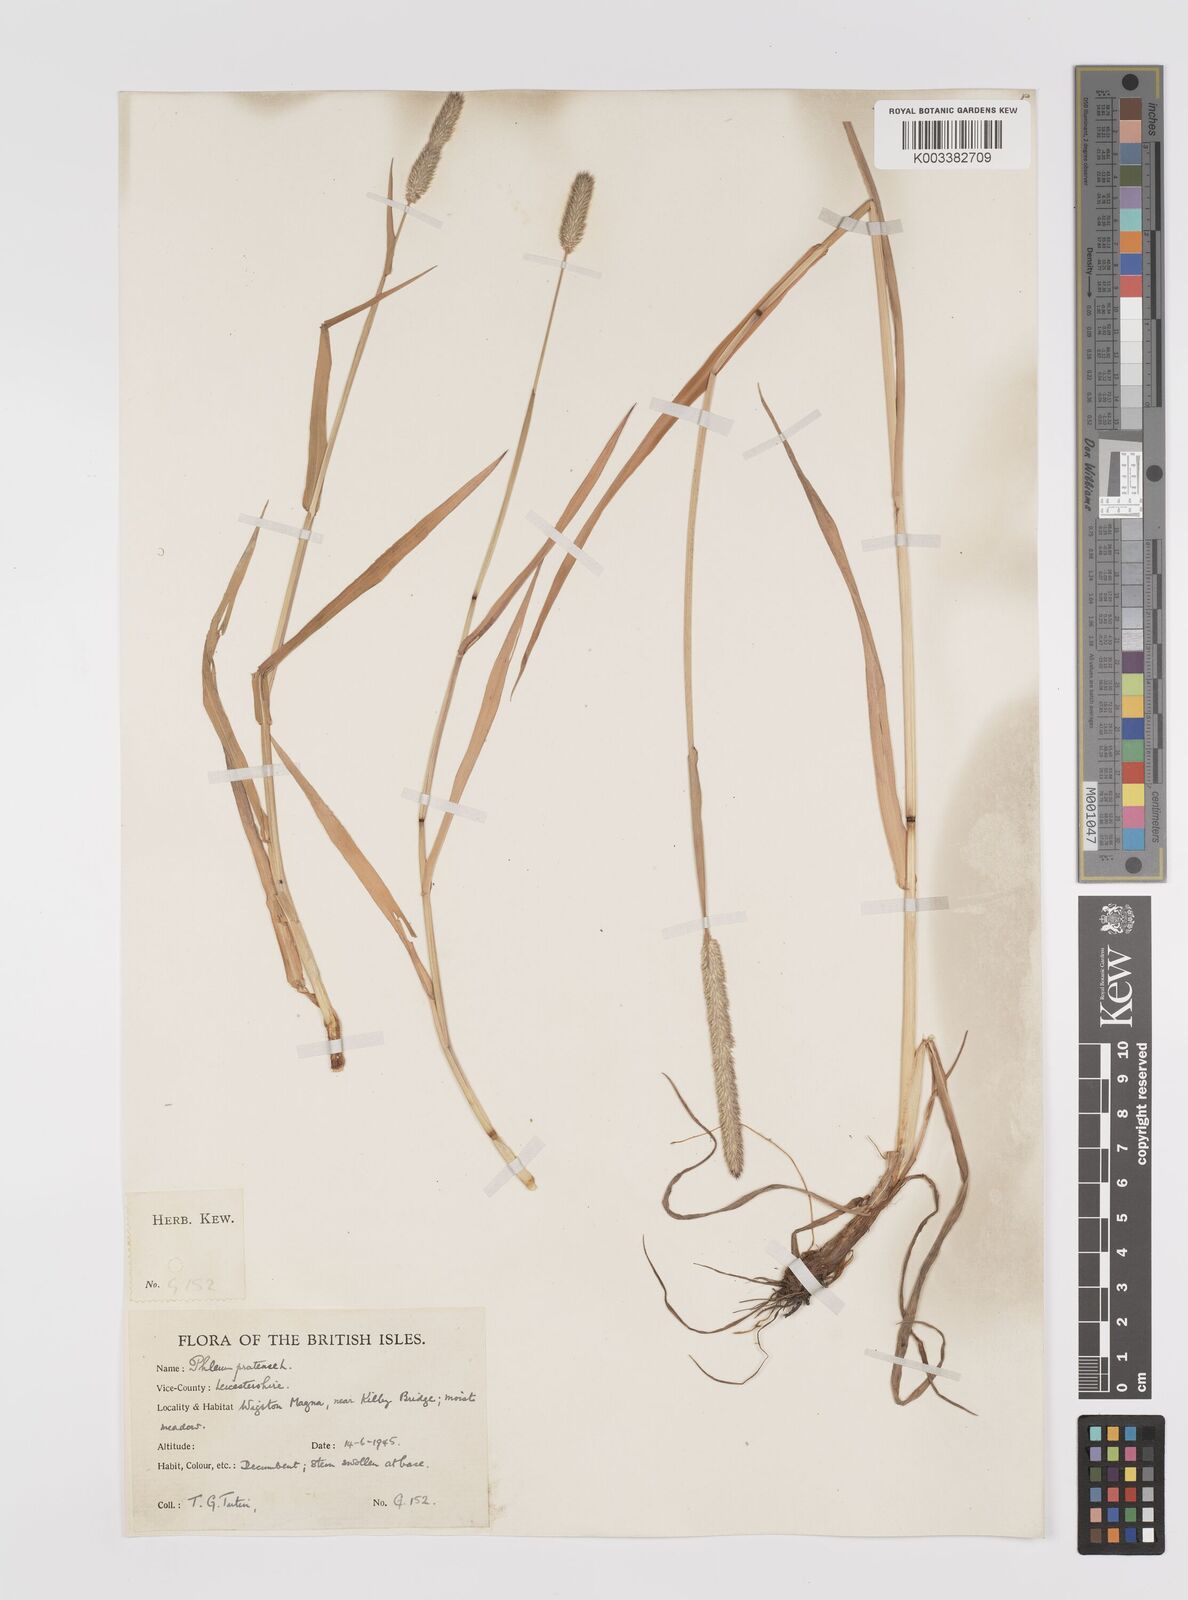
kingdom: Plantae
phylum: Tracheophyta
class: Liliopsida
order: Poales
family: Poaceae
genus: Phleum
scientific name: Phleum pratense
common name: Timothy grass
